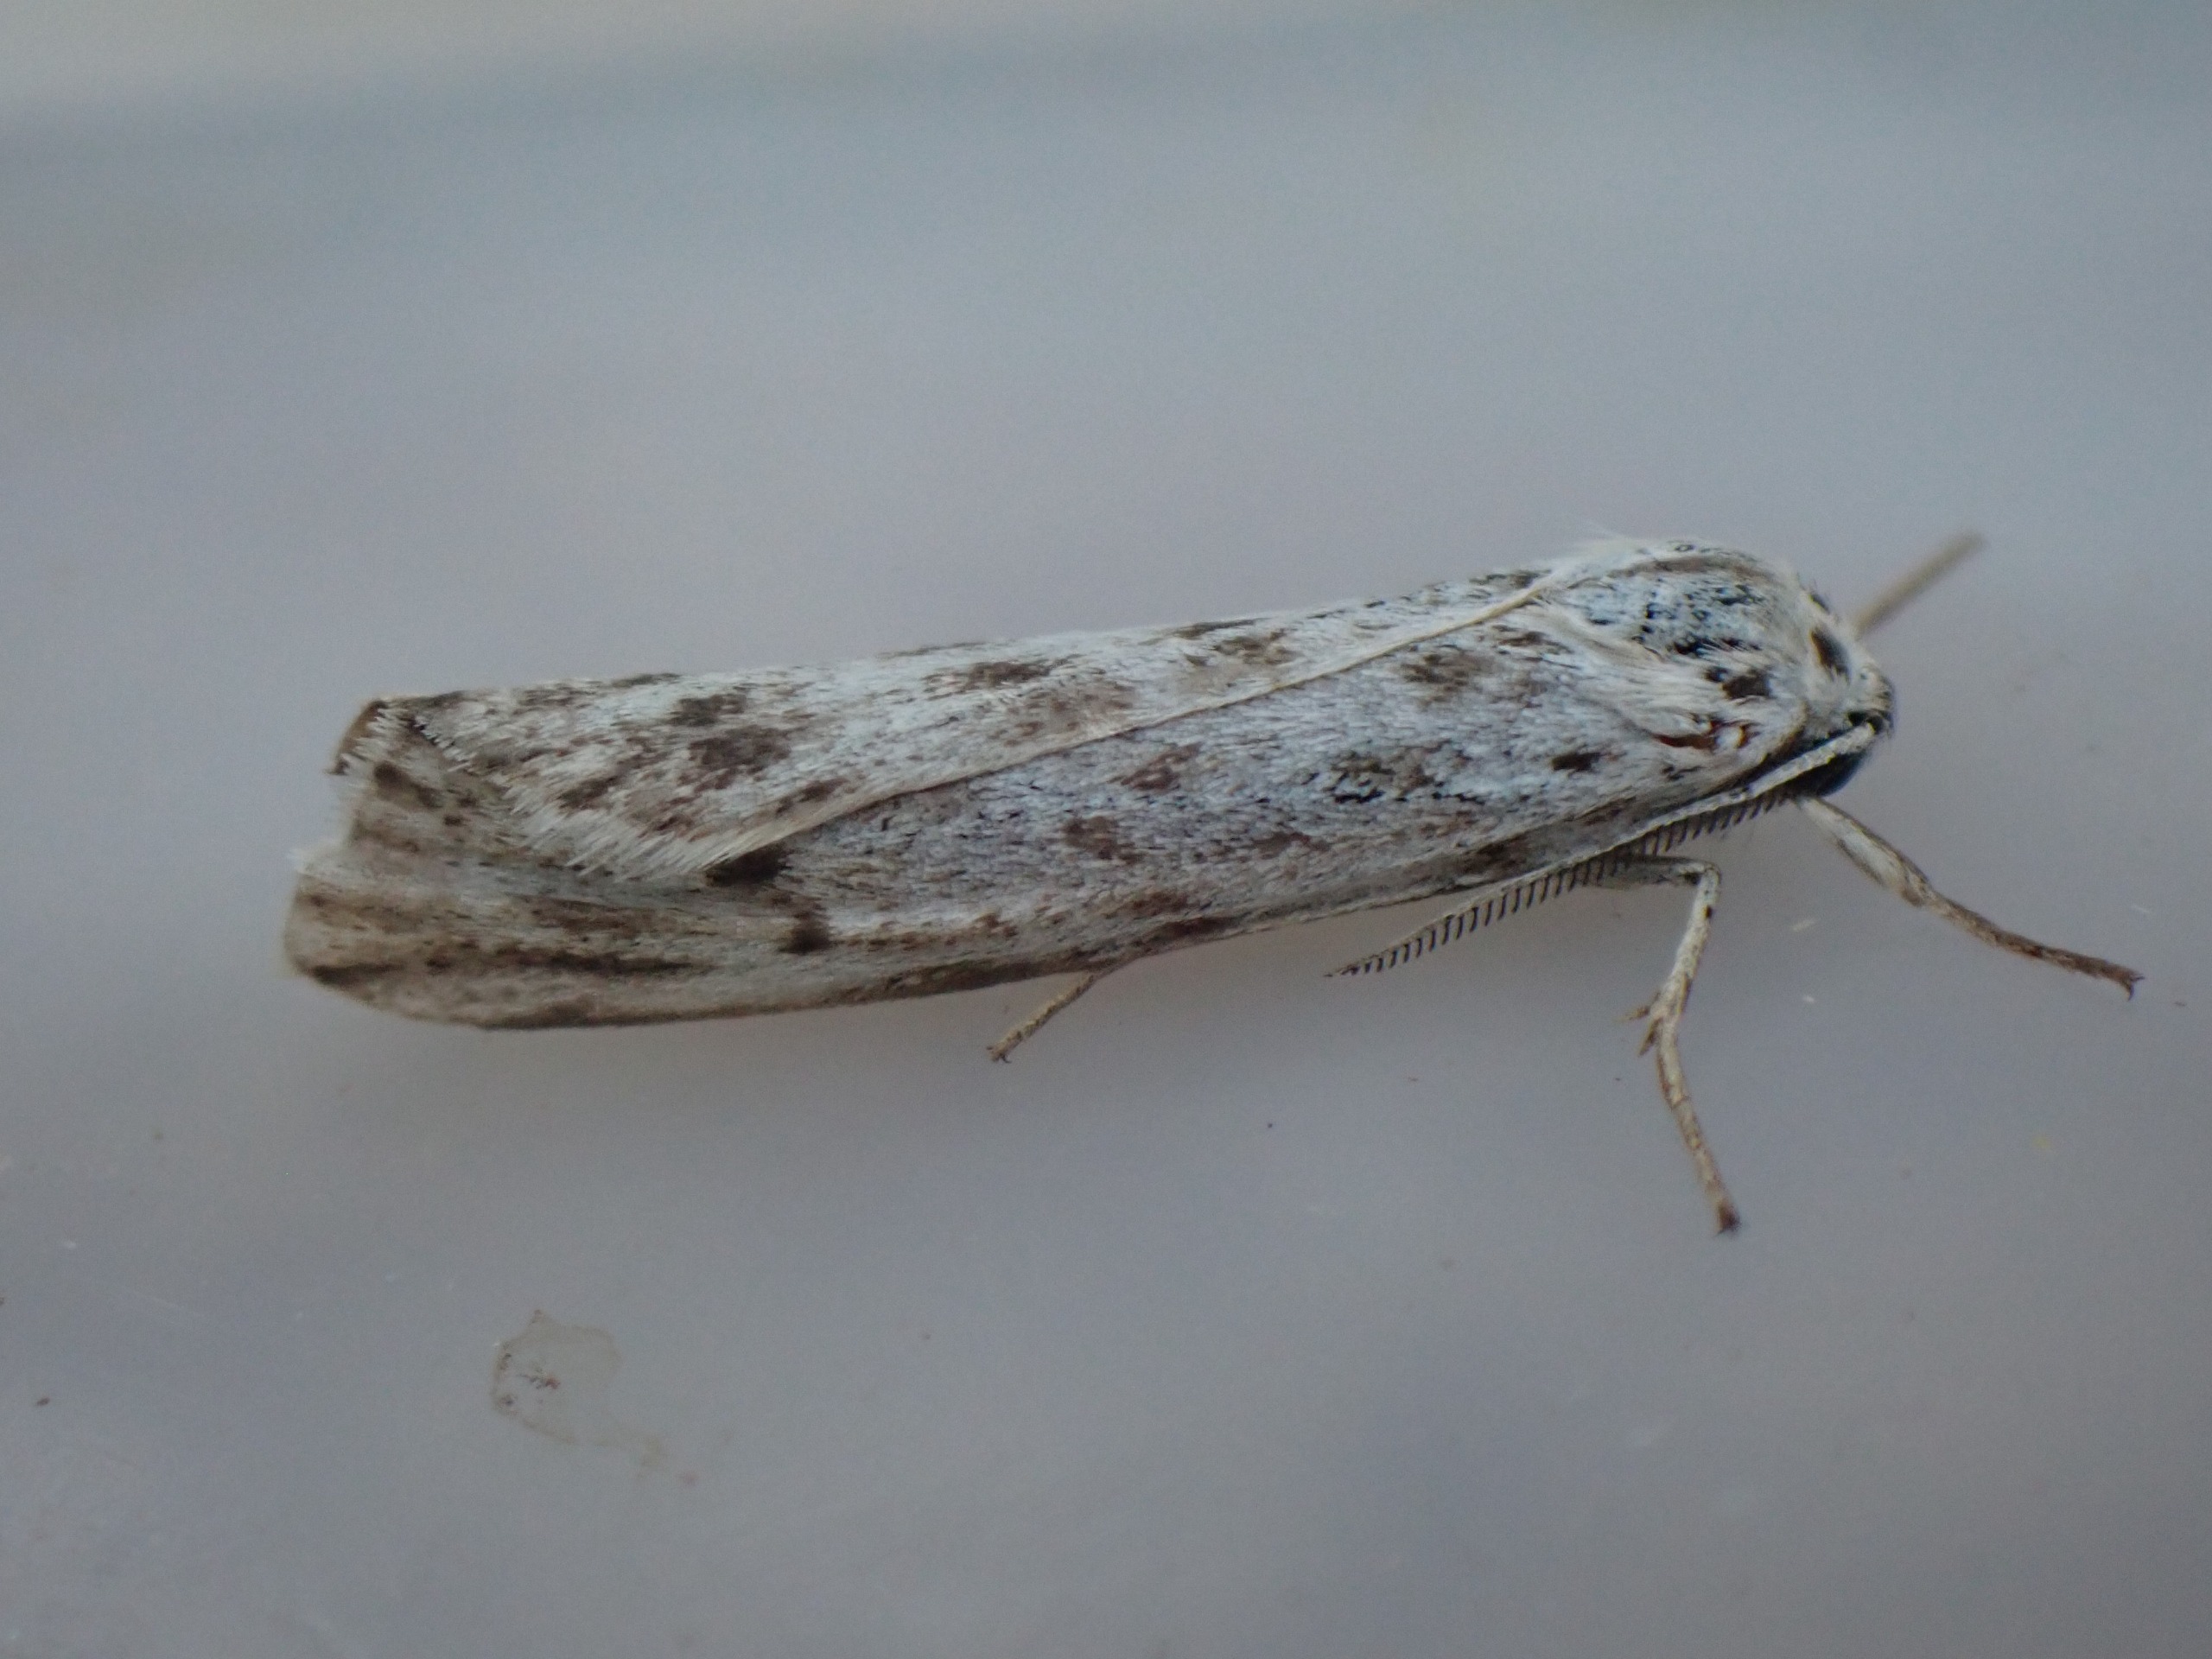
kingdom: Animalia
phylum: Arthropoda
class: Insecta
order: Lepidoptera
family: Erebidae
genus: Coscinia
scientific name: Coscinia cribraria
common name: Plettet hedespinder
